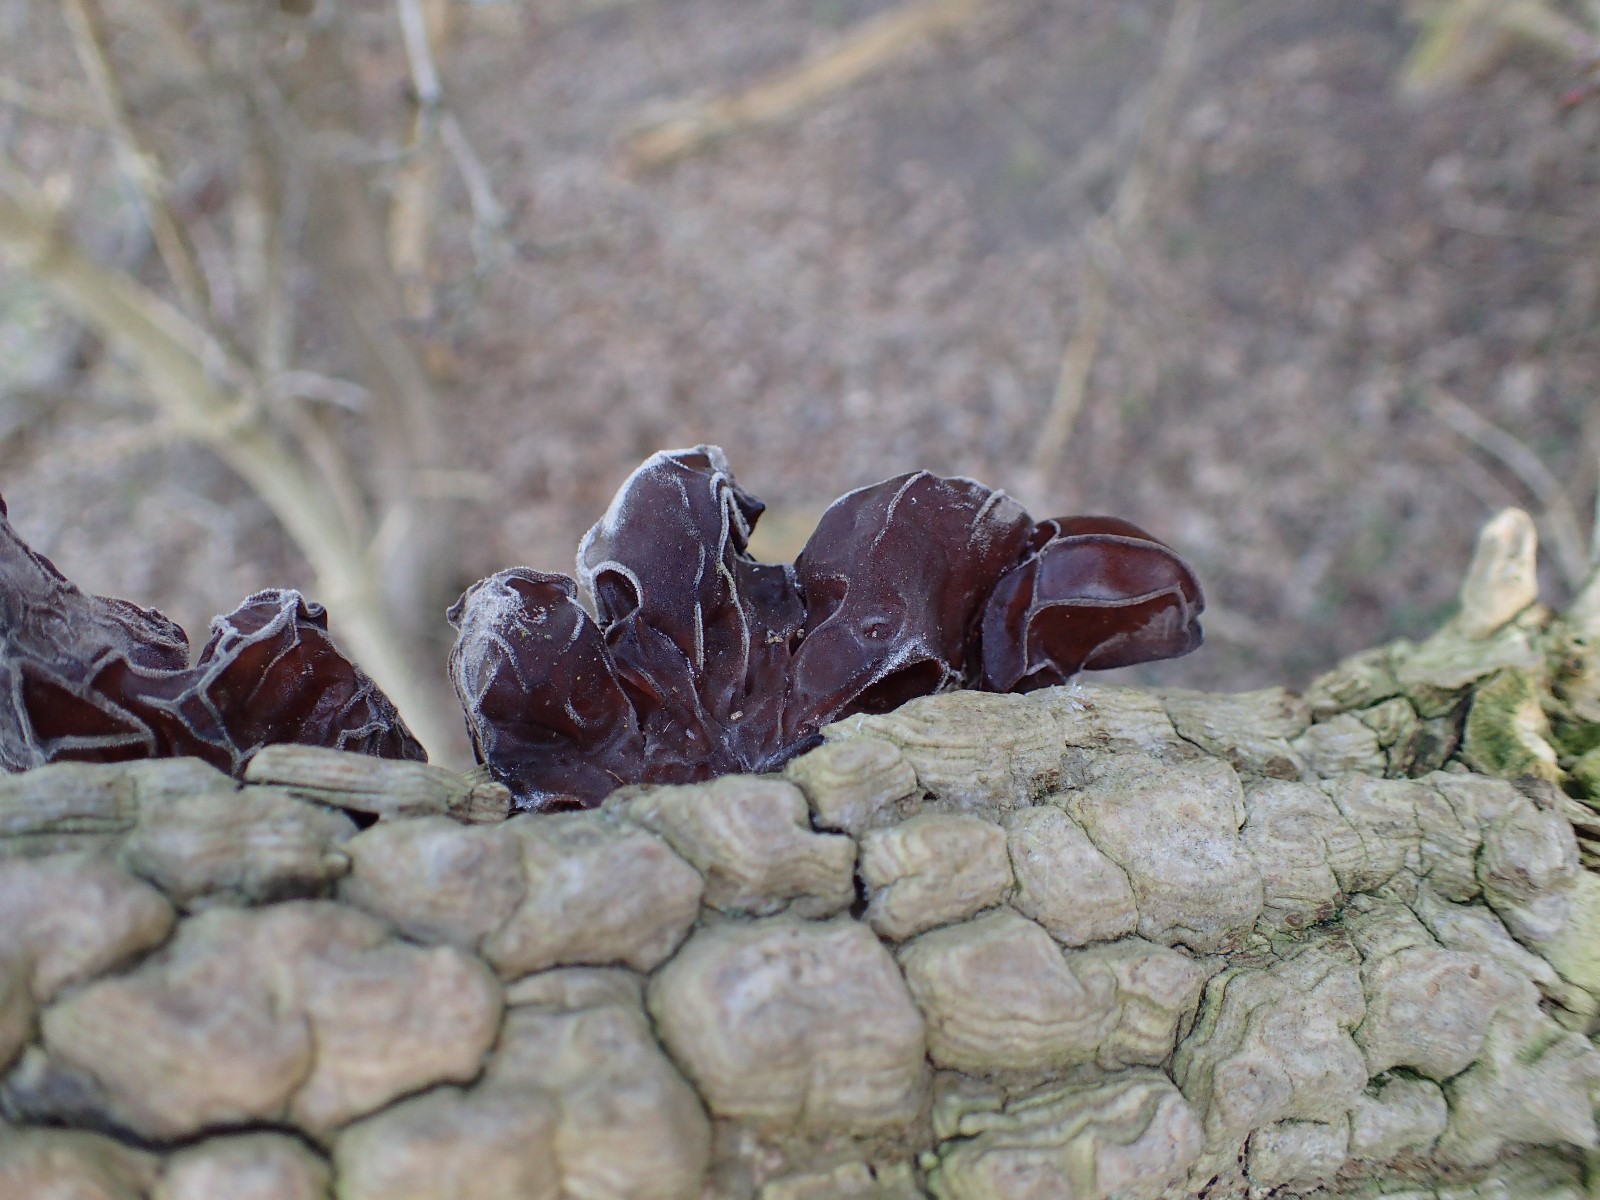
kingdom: Fungi
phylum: Basidiomycota
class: Agaricomycetes
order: Auriculariales
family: Auriculariaceae
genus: Auricularia
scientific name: Auricularia auricula-judae
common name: almindelig judasøre
